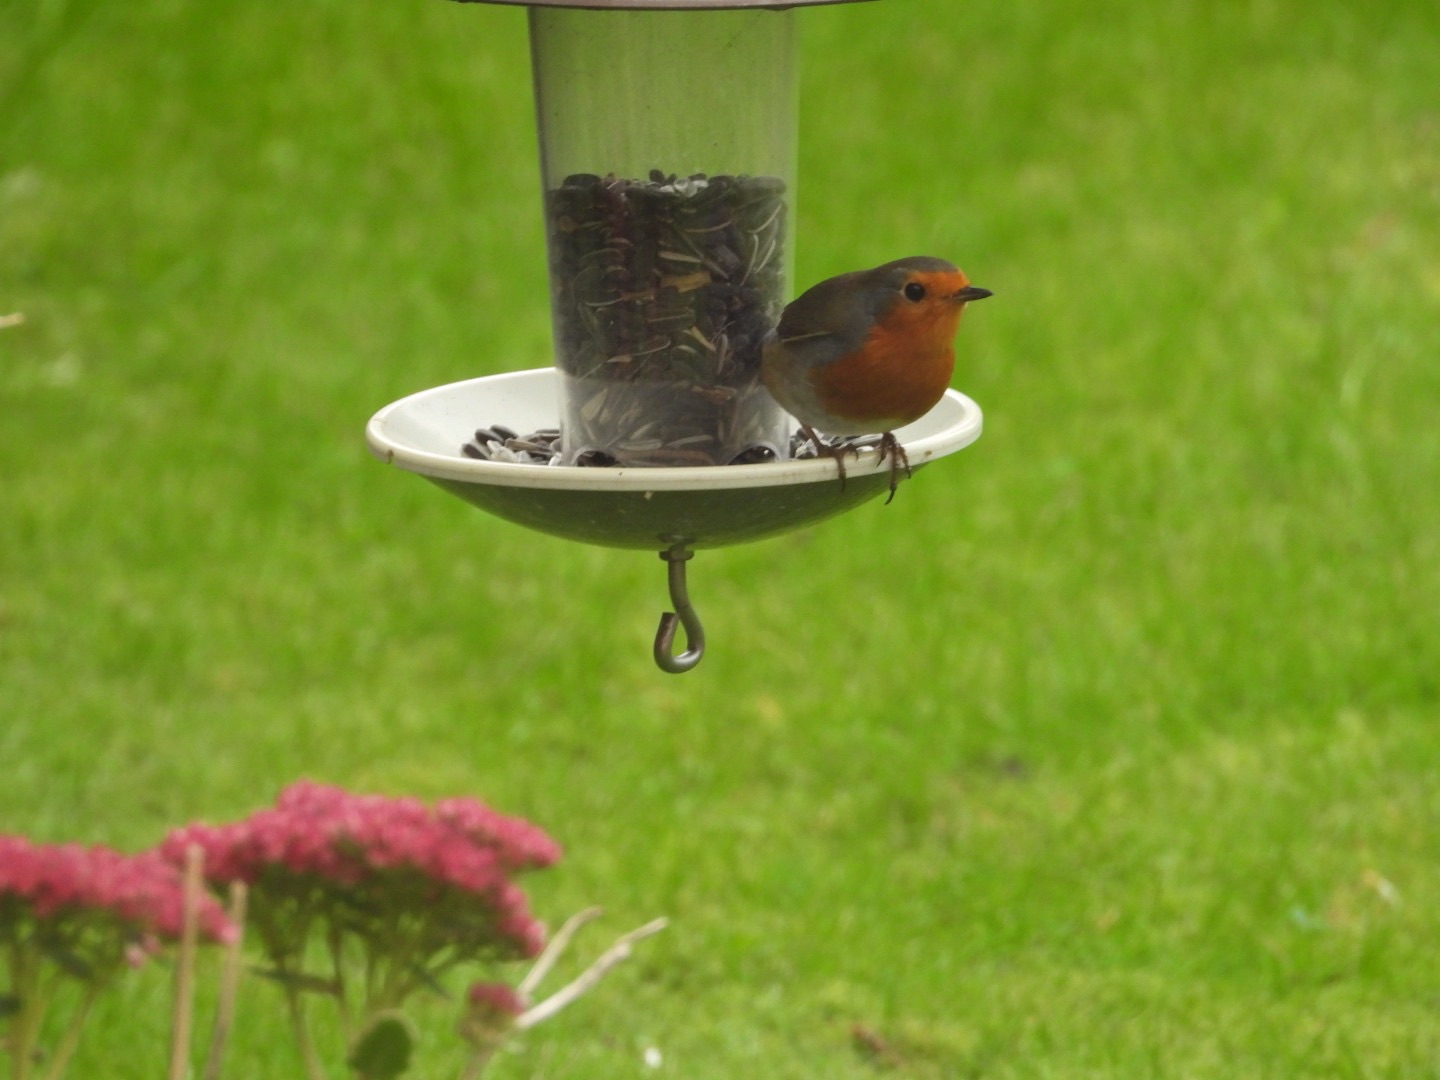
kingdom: Animalia
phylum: Chordata
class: Aves
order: Passeriformes
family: Muscicapidae
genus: Erithacus
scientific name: Erithacus rubecula
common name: Rødhals/rødkælk
